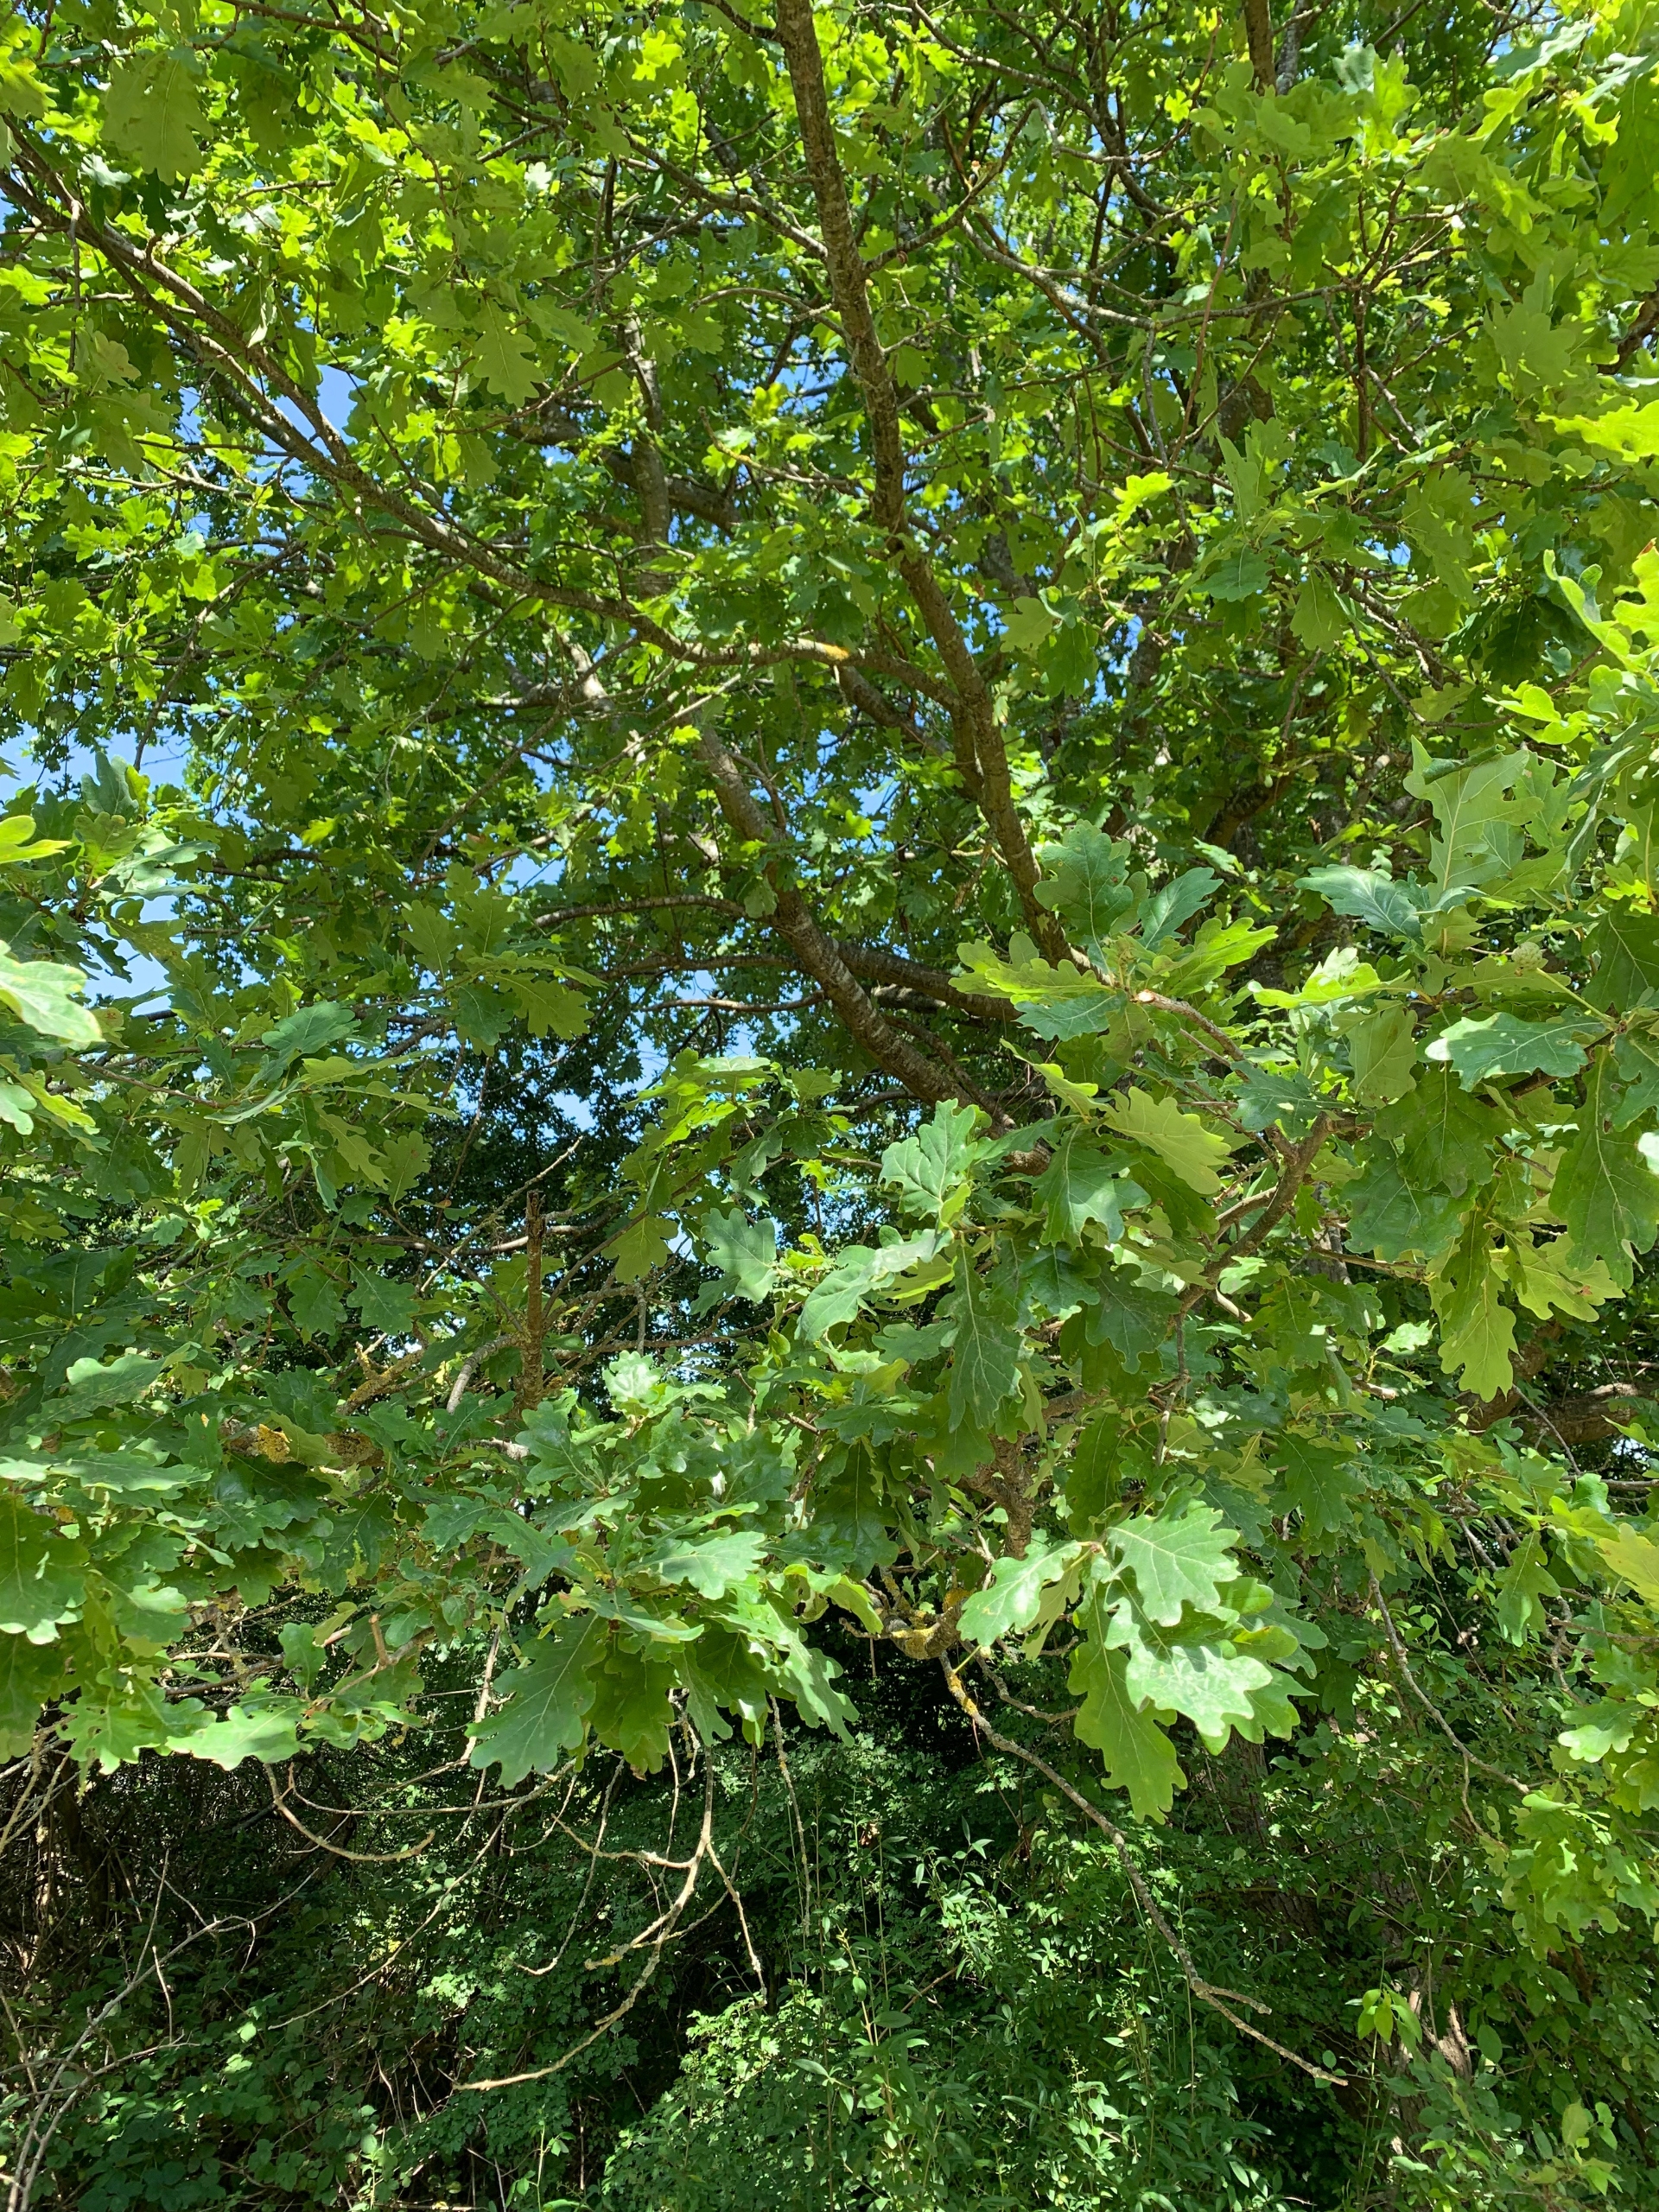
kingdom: Plantae
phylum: Tracheophyta
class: Magnoliopsida
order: Fagales
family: Fagaceae
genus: Quercus
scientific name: Quercus robur
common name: Stilk-eg/almindelig eg
